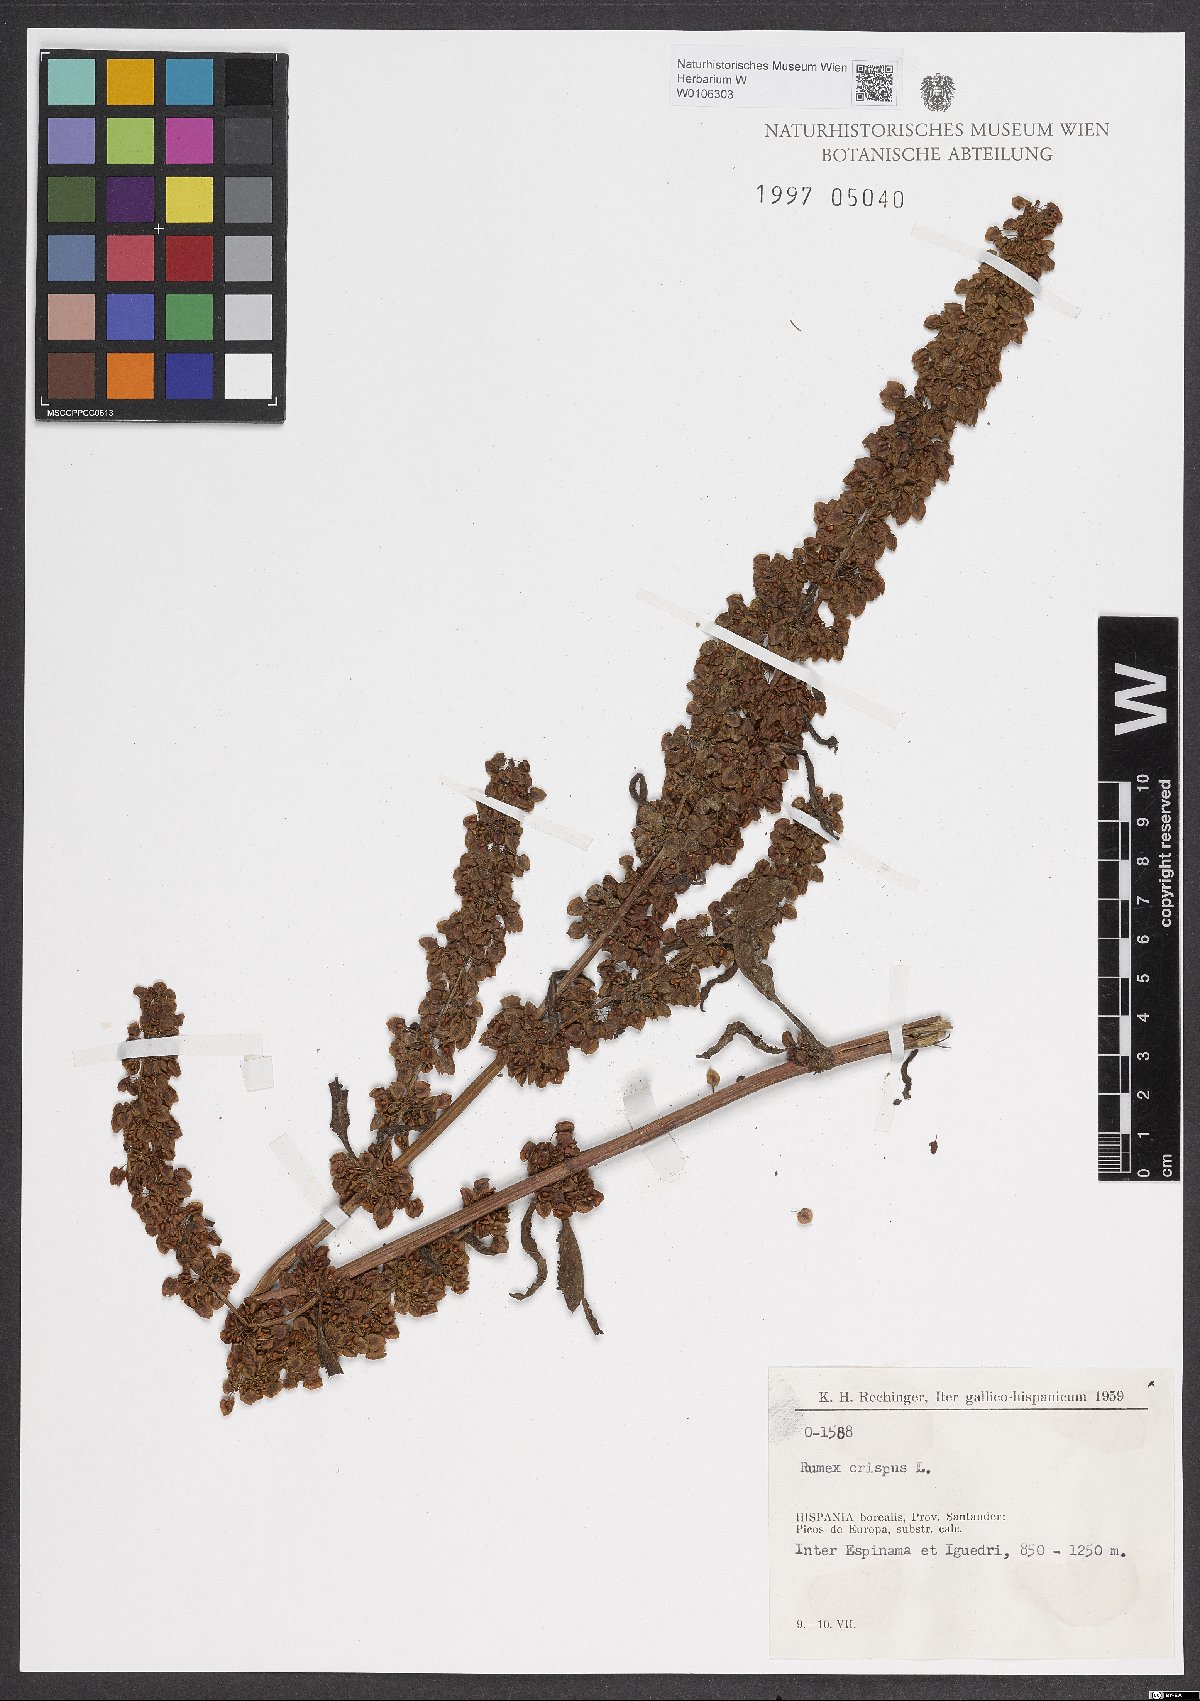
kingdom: Plantae
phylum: Tracheophyta
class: Magnoliopsida
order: Caryophyllales
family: Polygonaceae
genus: Rumex
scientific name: Rumex crispus
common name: Curled dock
